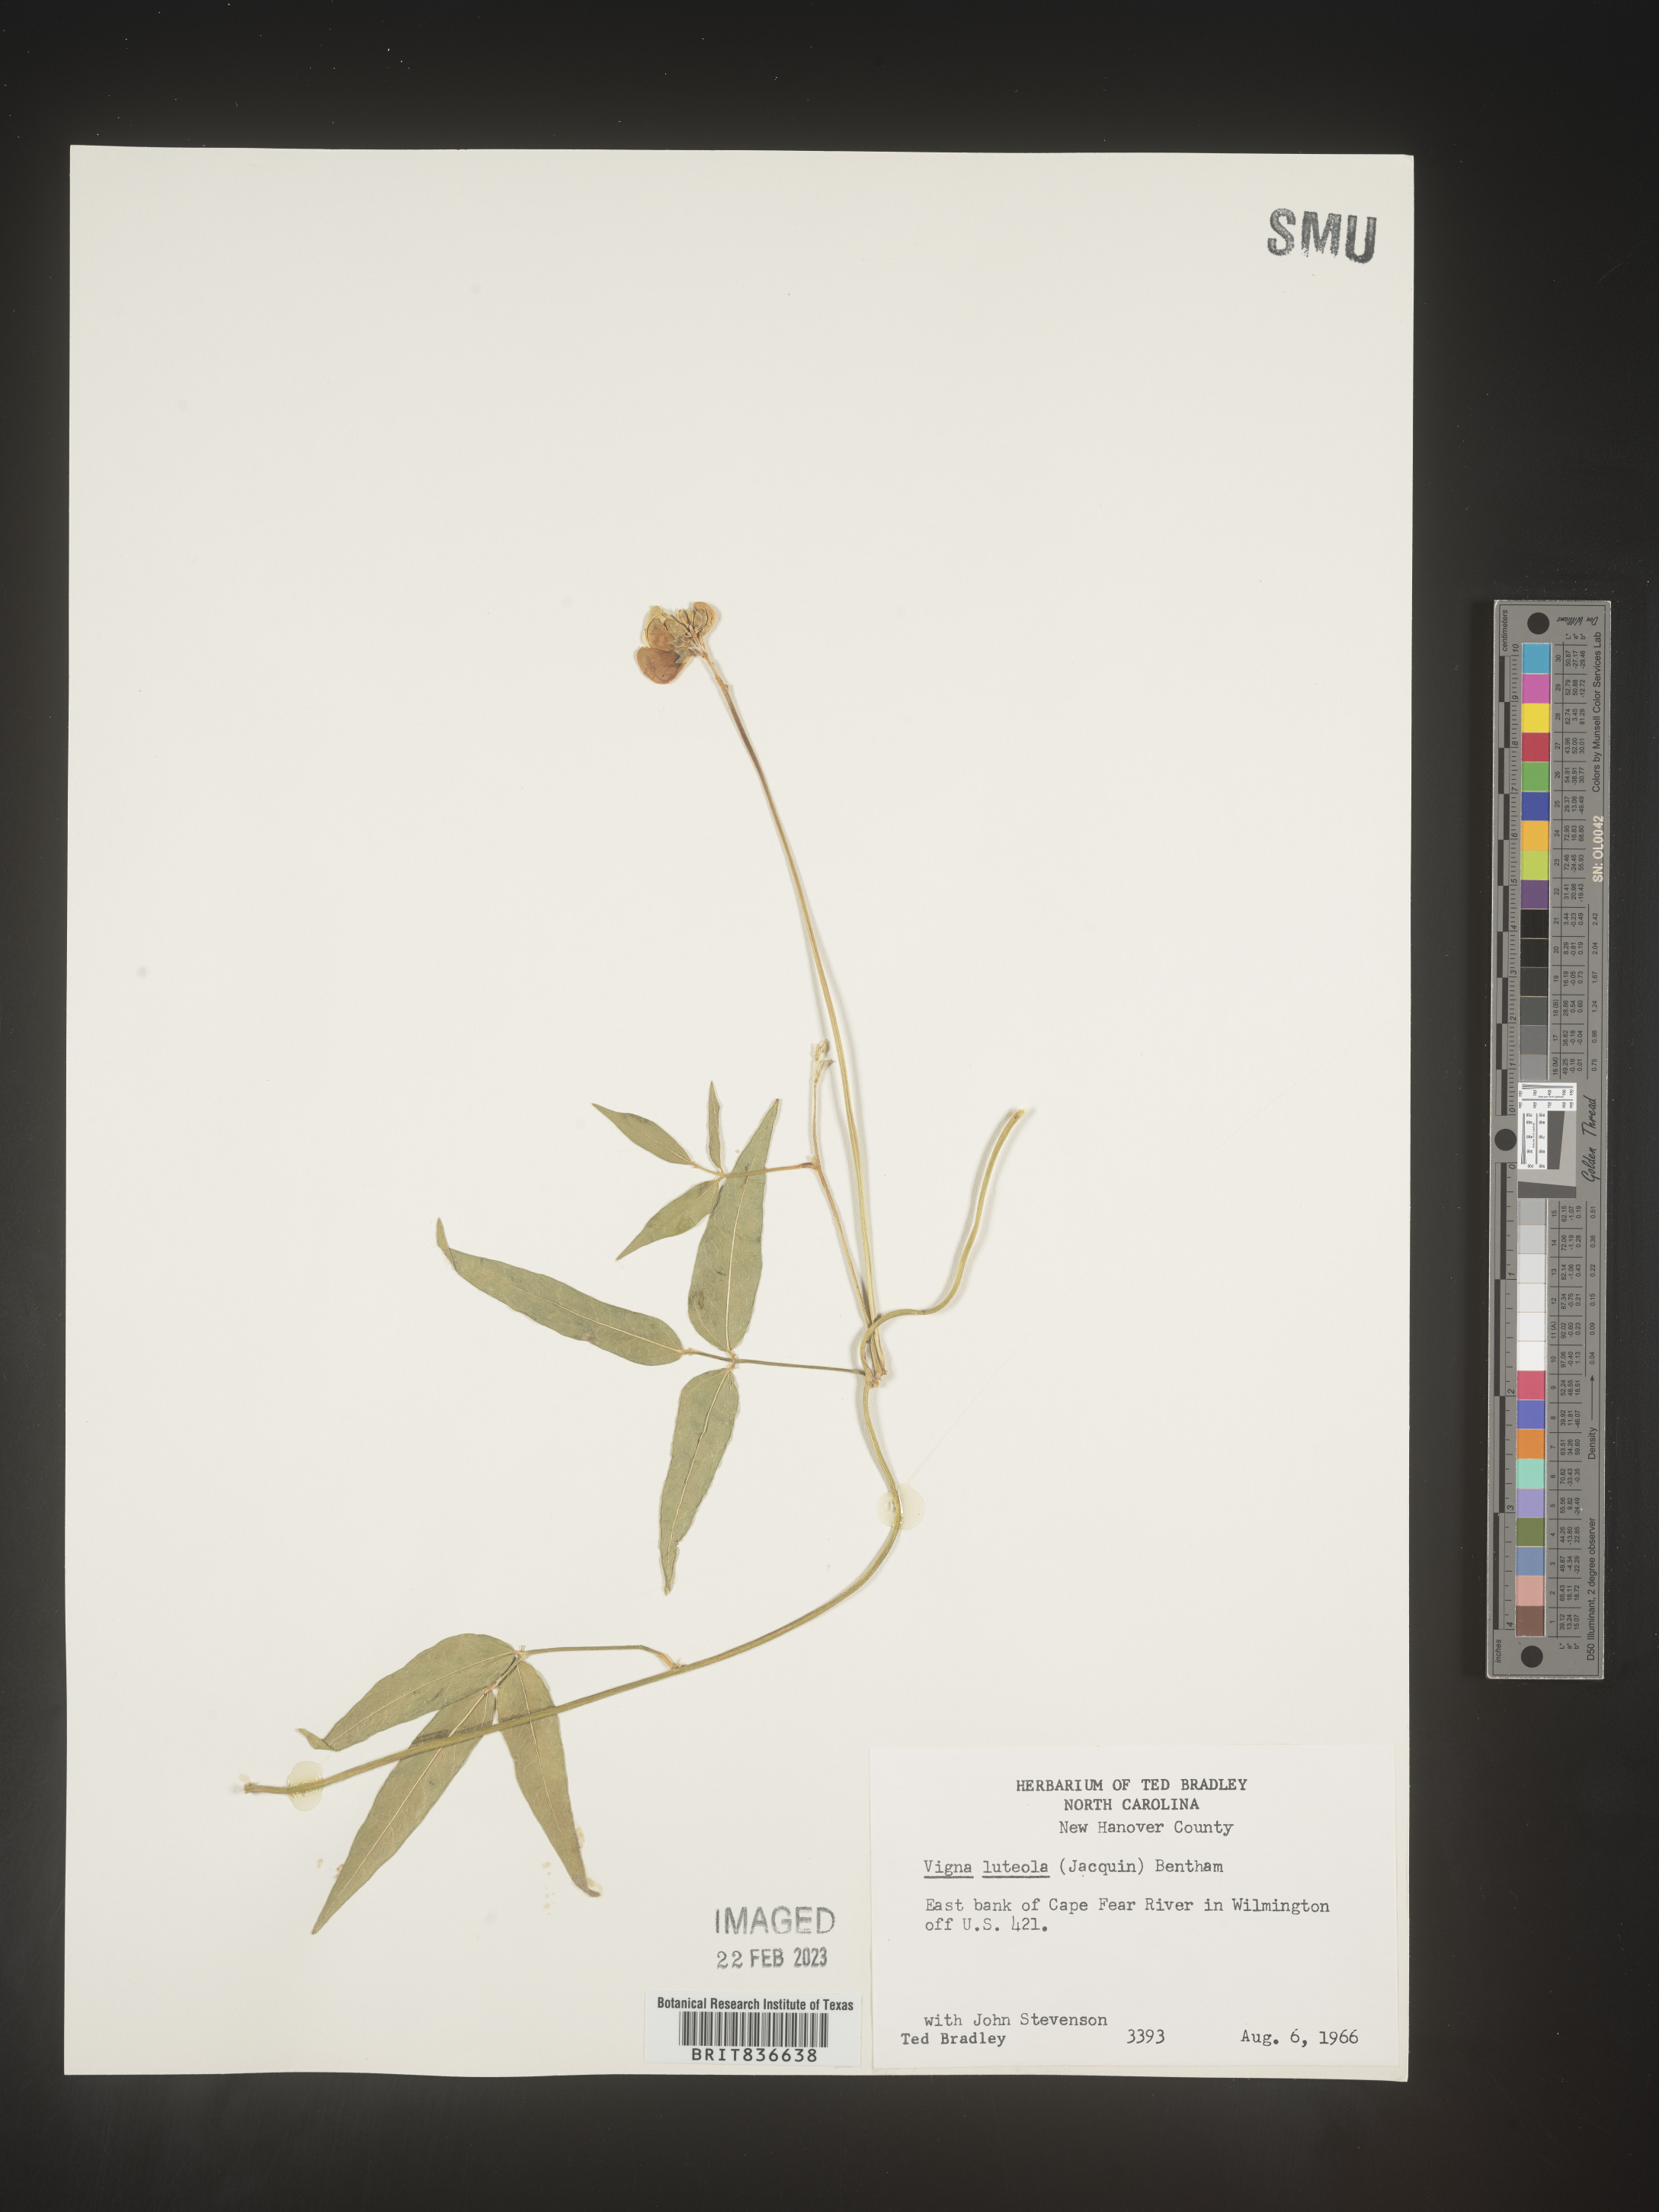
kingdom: Plantae
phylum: Tracheophyta
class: Magnoliopsida
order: Fabales
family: Fabaceae
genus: Vigna
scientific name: Vigna
